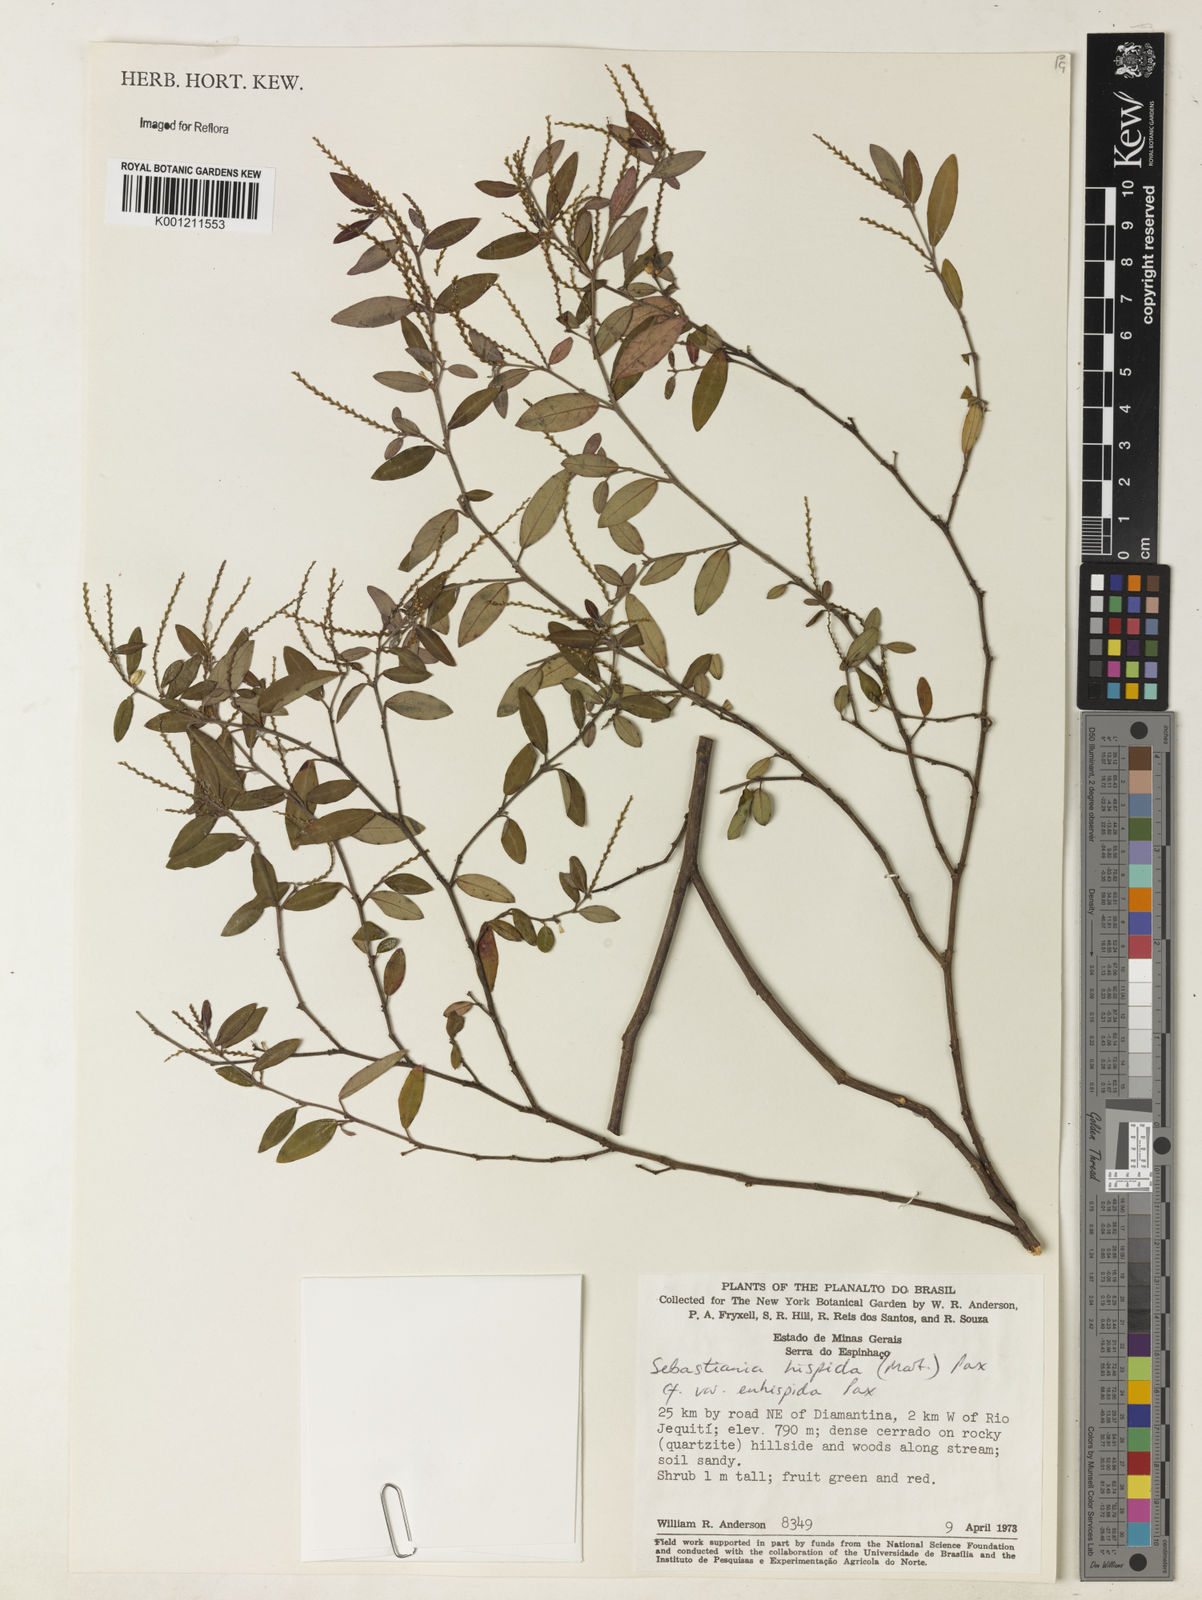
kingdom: Plantae
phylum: Tracheophyta
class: Magnoliopsida
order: Malpighiales
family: Euphorbiaceae
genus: Microstachys
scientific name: Microstachys hispida
